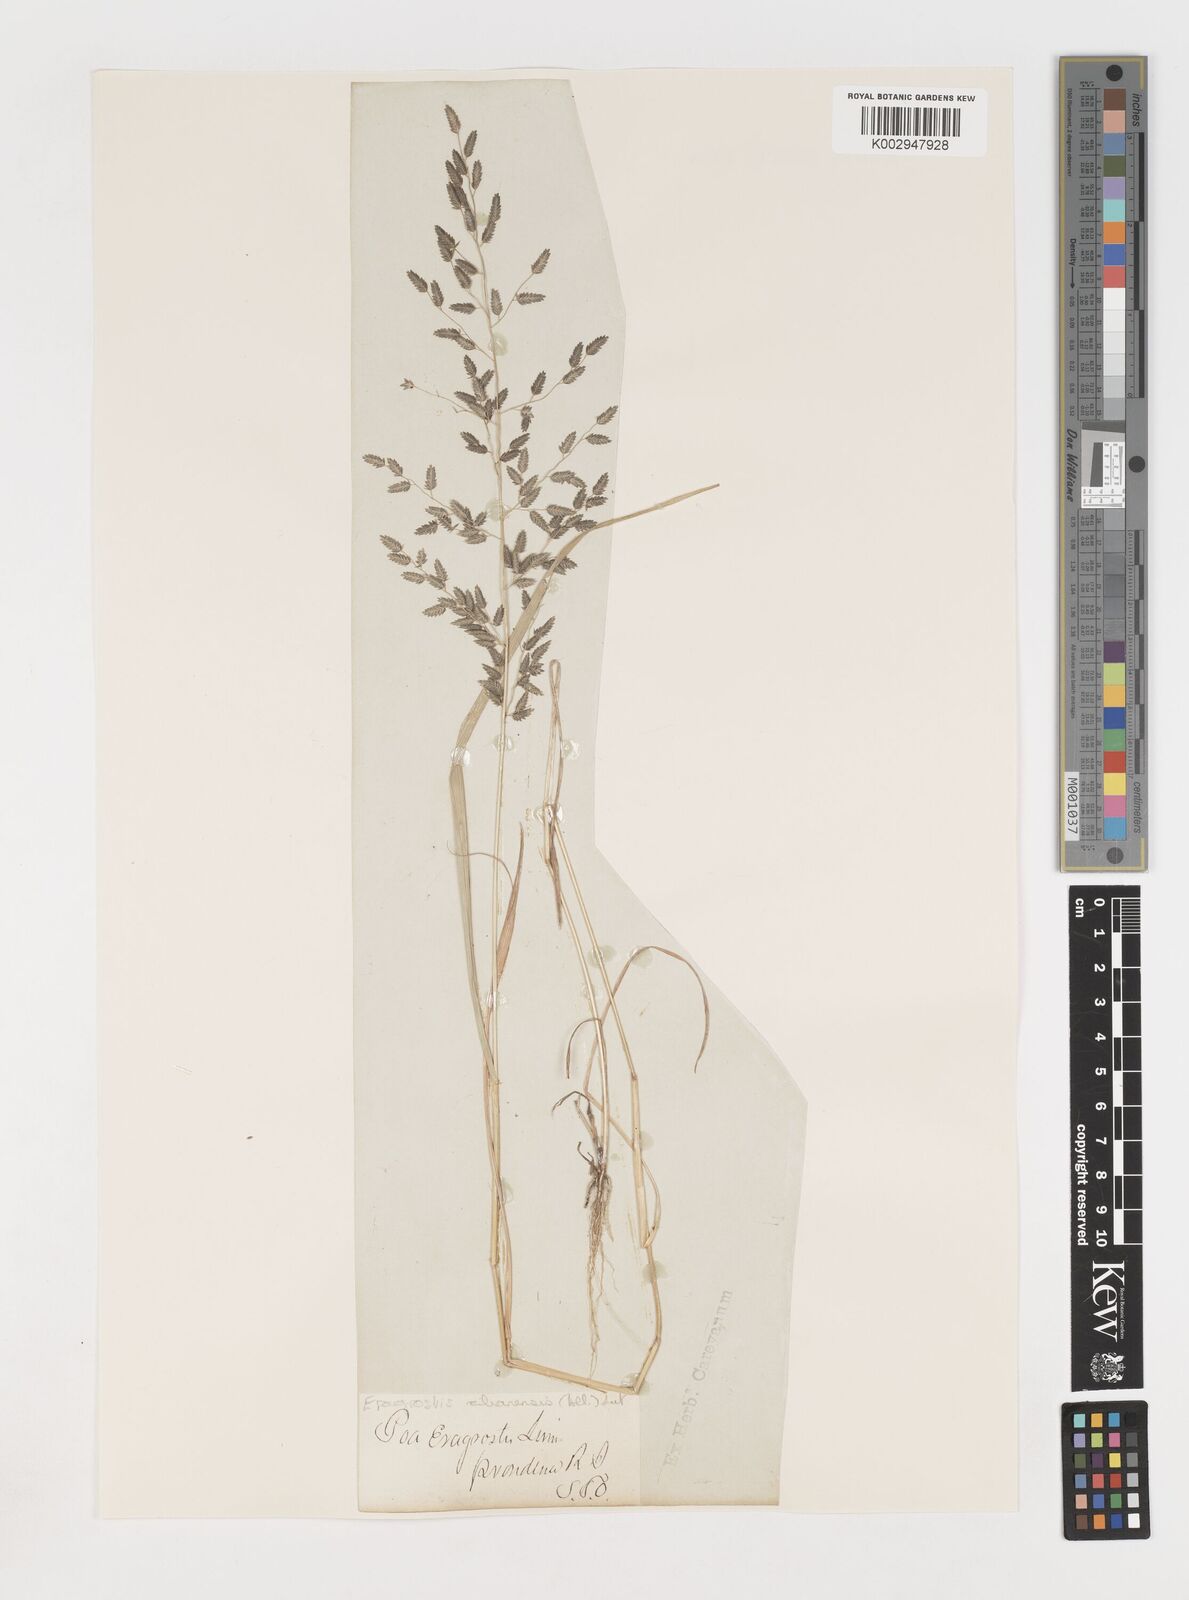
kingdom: Plantae
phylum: Tracheophyta
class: Liliopsida
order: Poales
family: Poaceae
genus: Eragrostis
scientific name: Eragrostis
